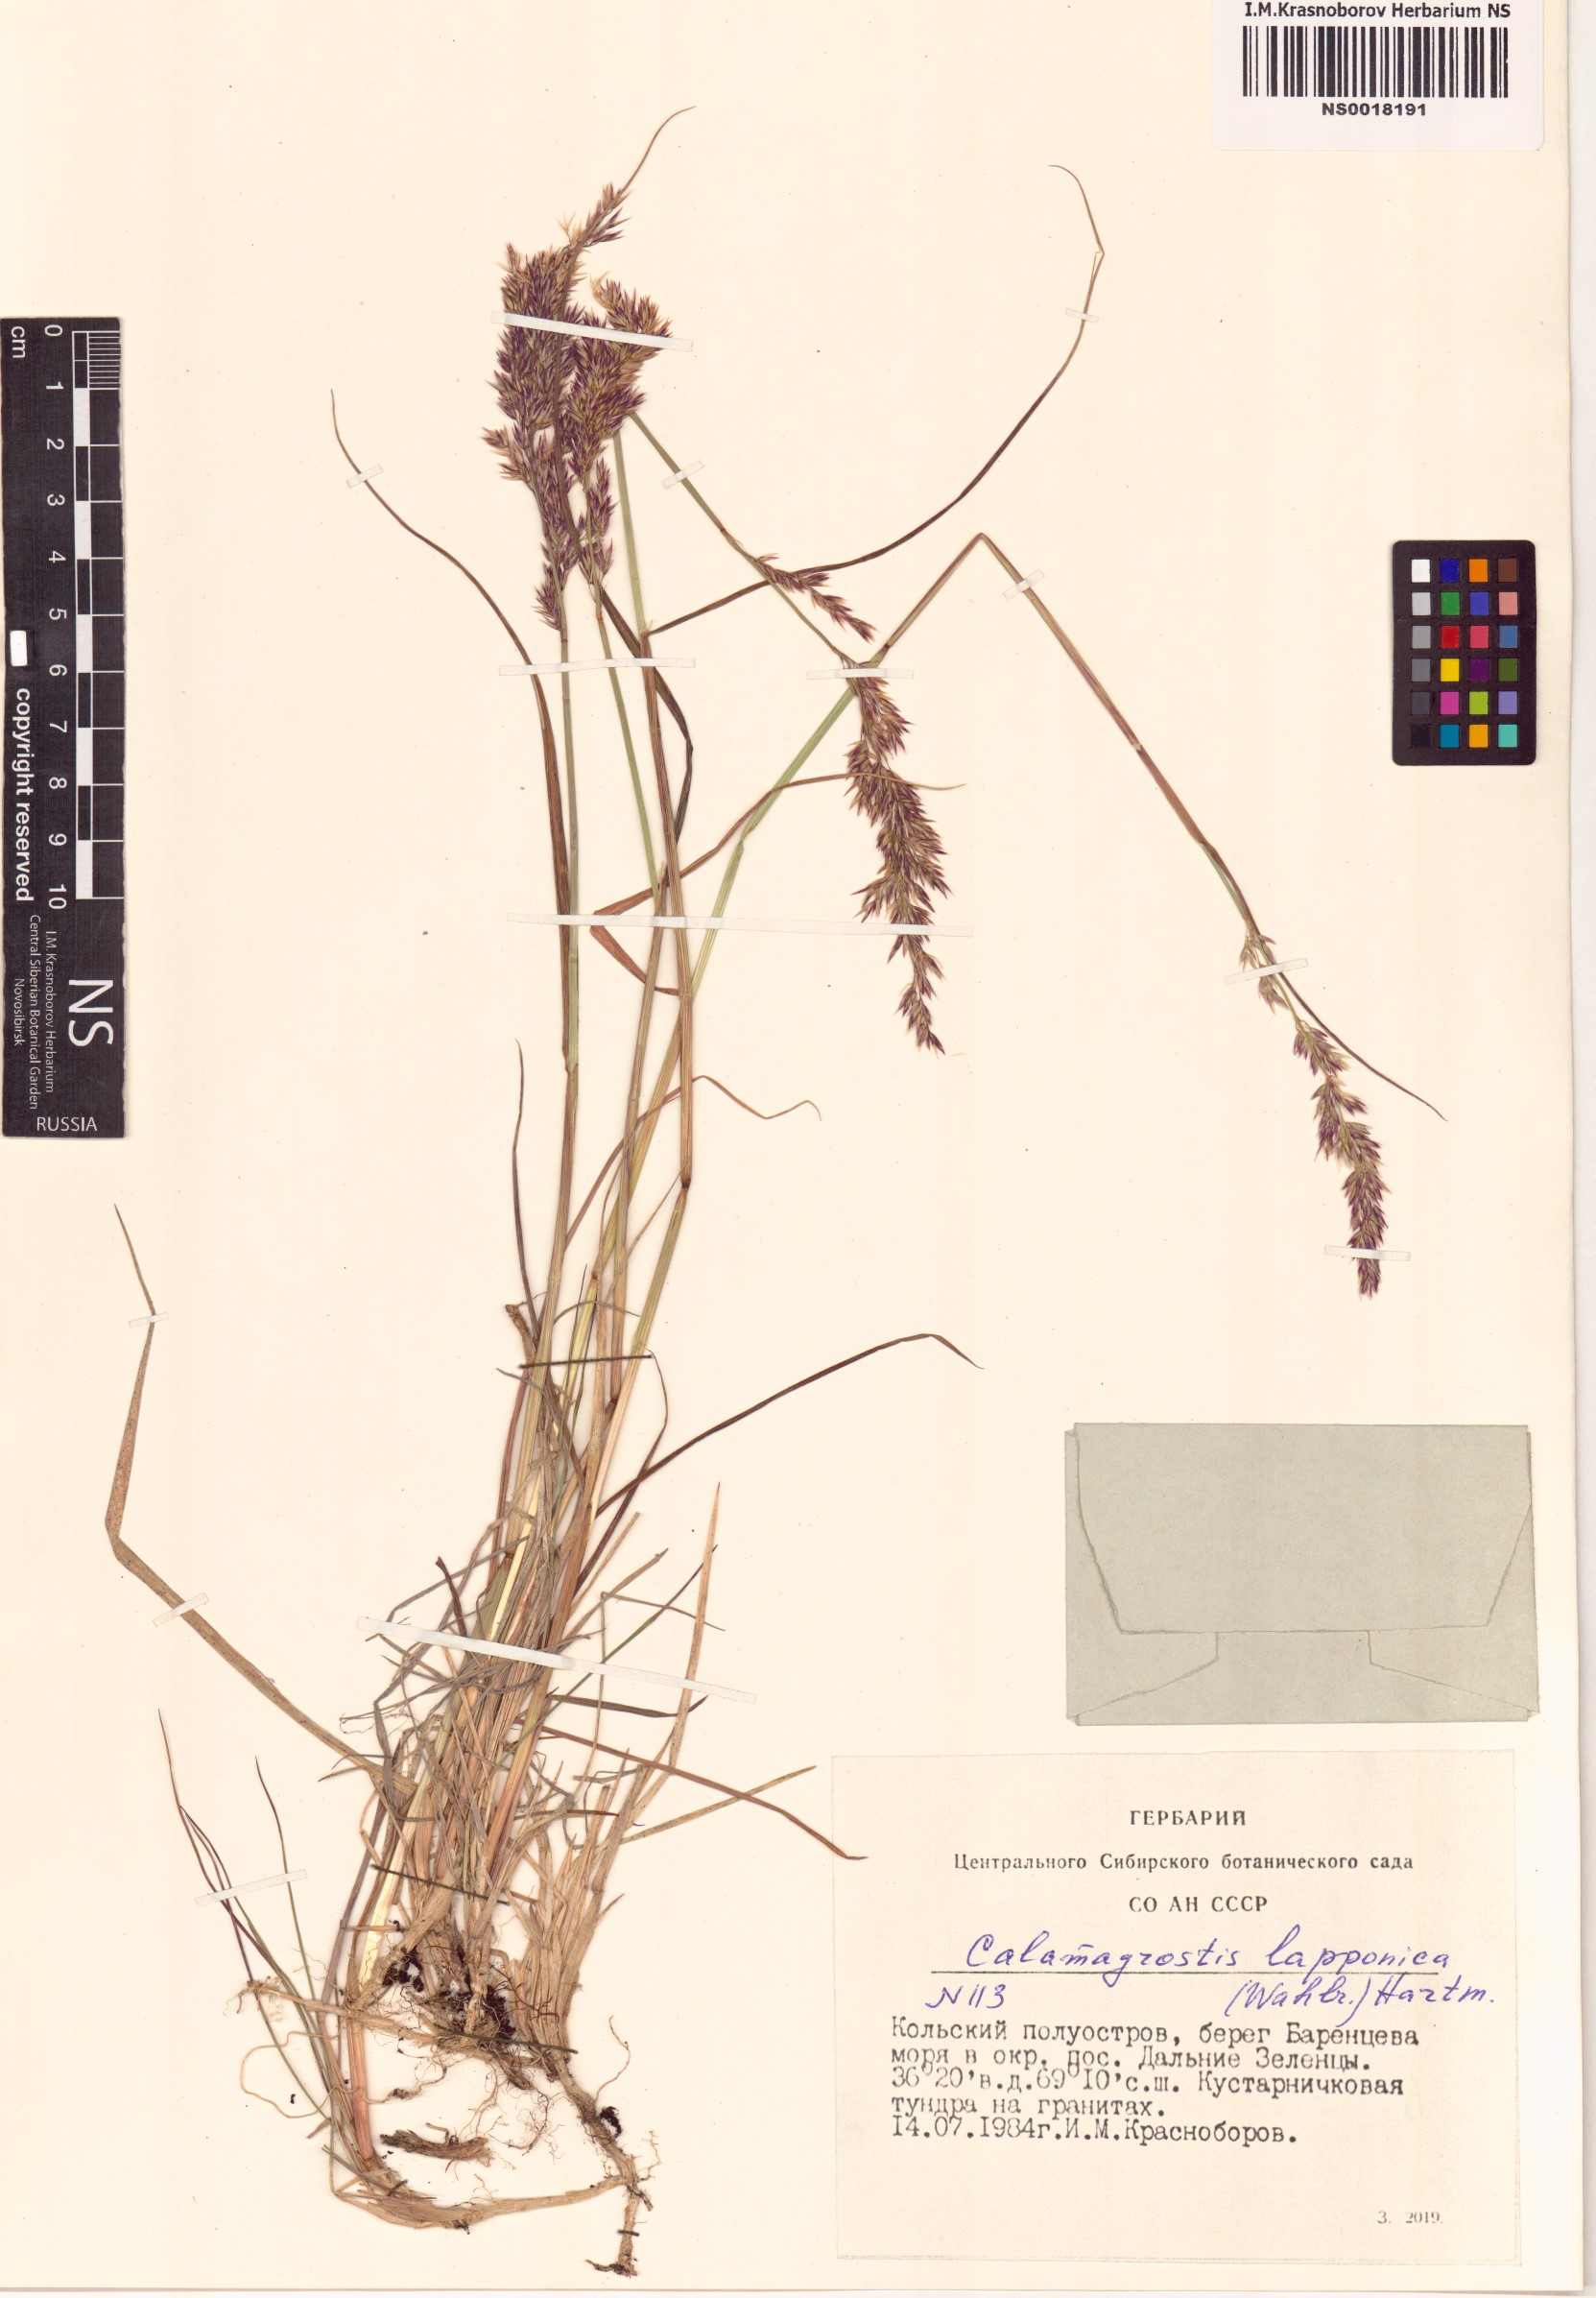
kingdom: Plantae
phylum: Tracheophyta
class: Liliopsida
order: Poales
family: Poaceae
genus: Calamagrostis
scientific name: Calamagrostis lapponica
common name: Lapland reedgrass
